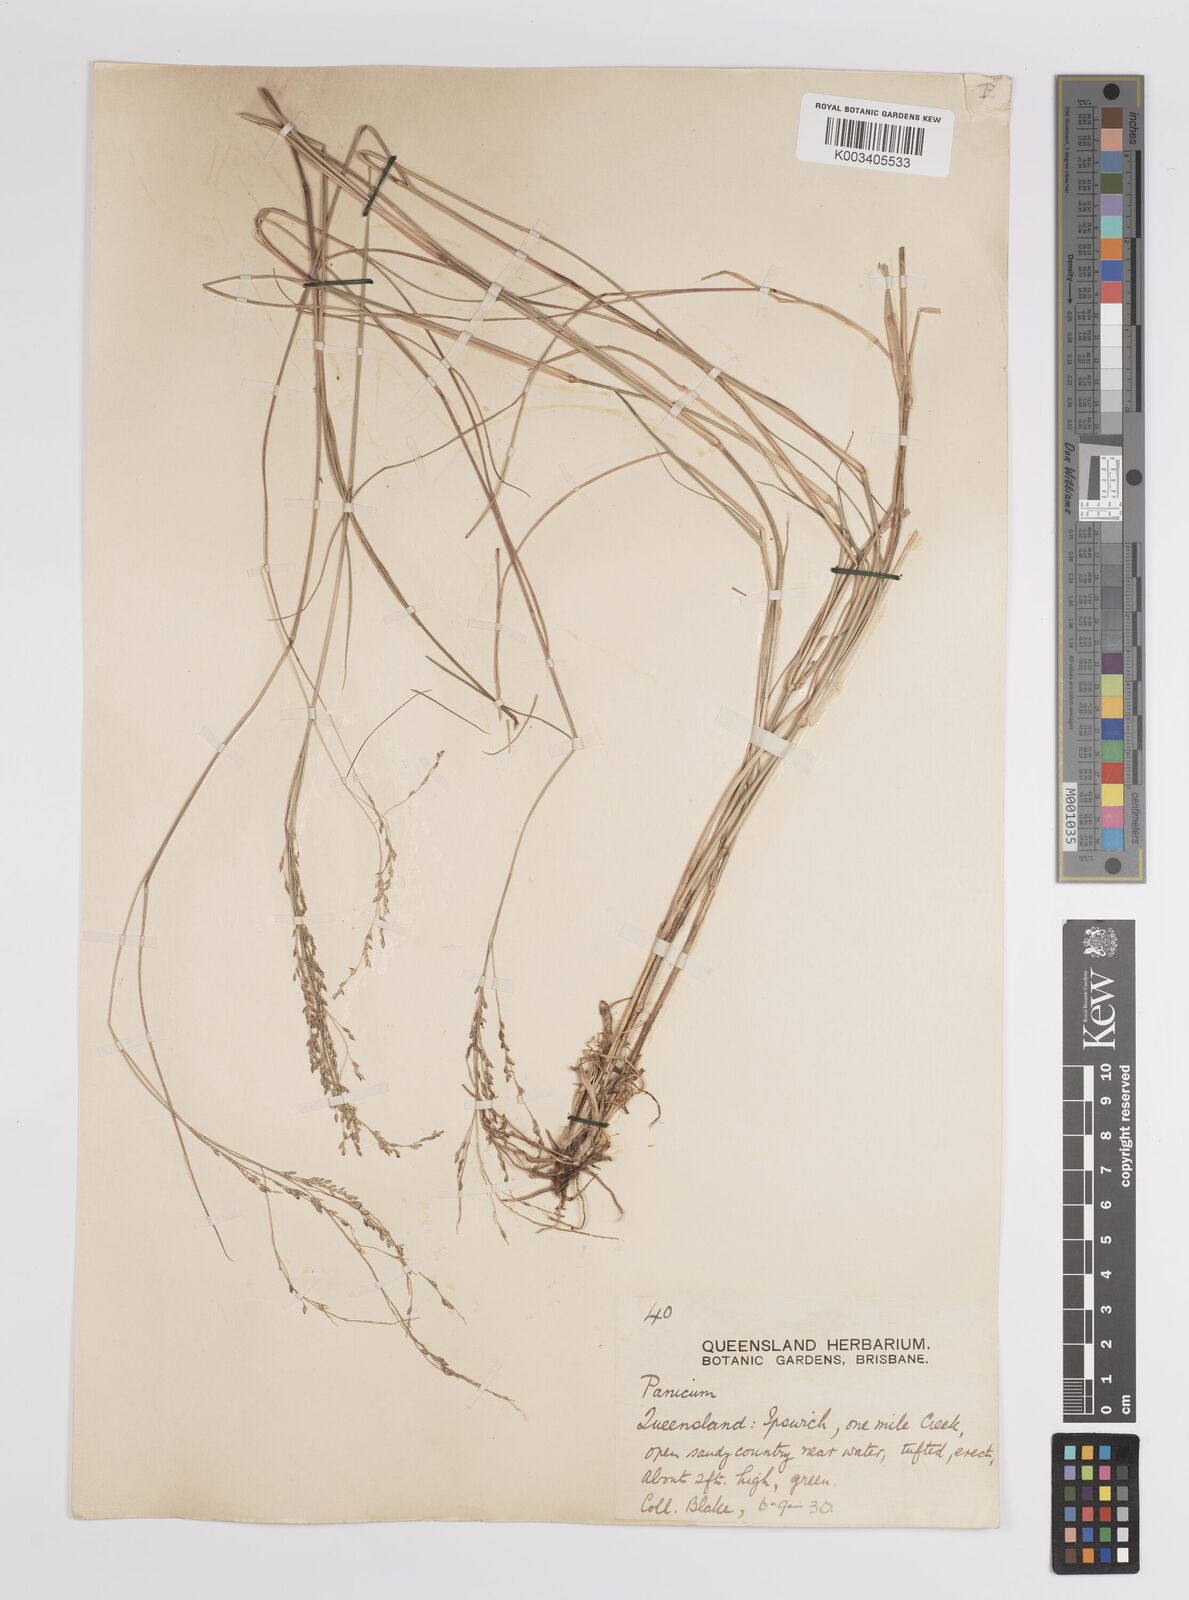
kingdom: Plantae
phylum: Tracheophyta
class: Liliopsida
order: Poales
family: Poaceae
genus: Panicum
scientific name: Panicum
